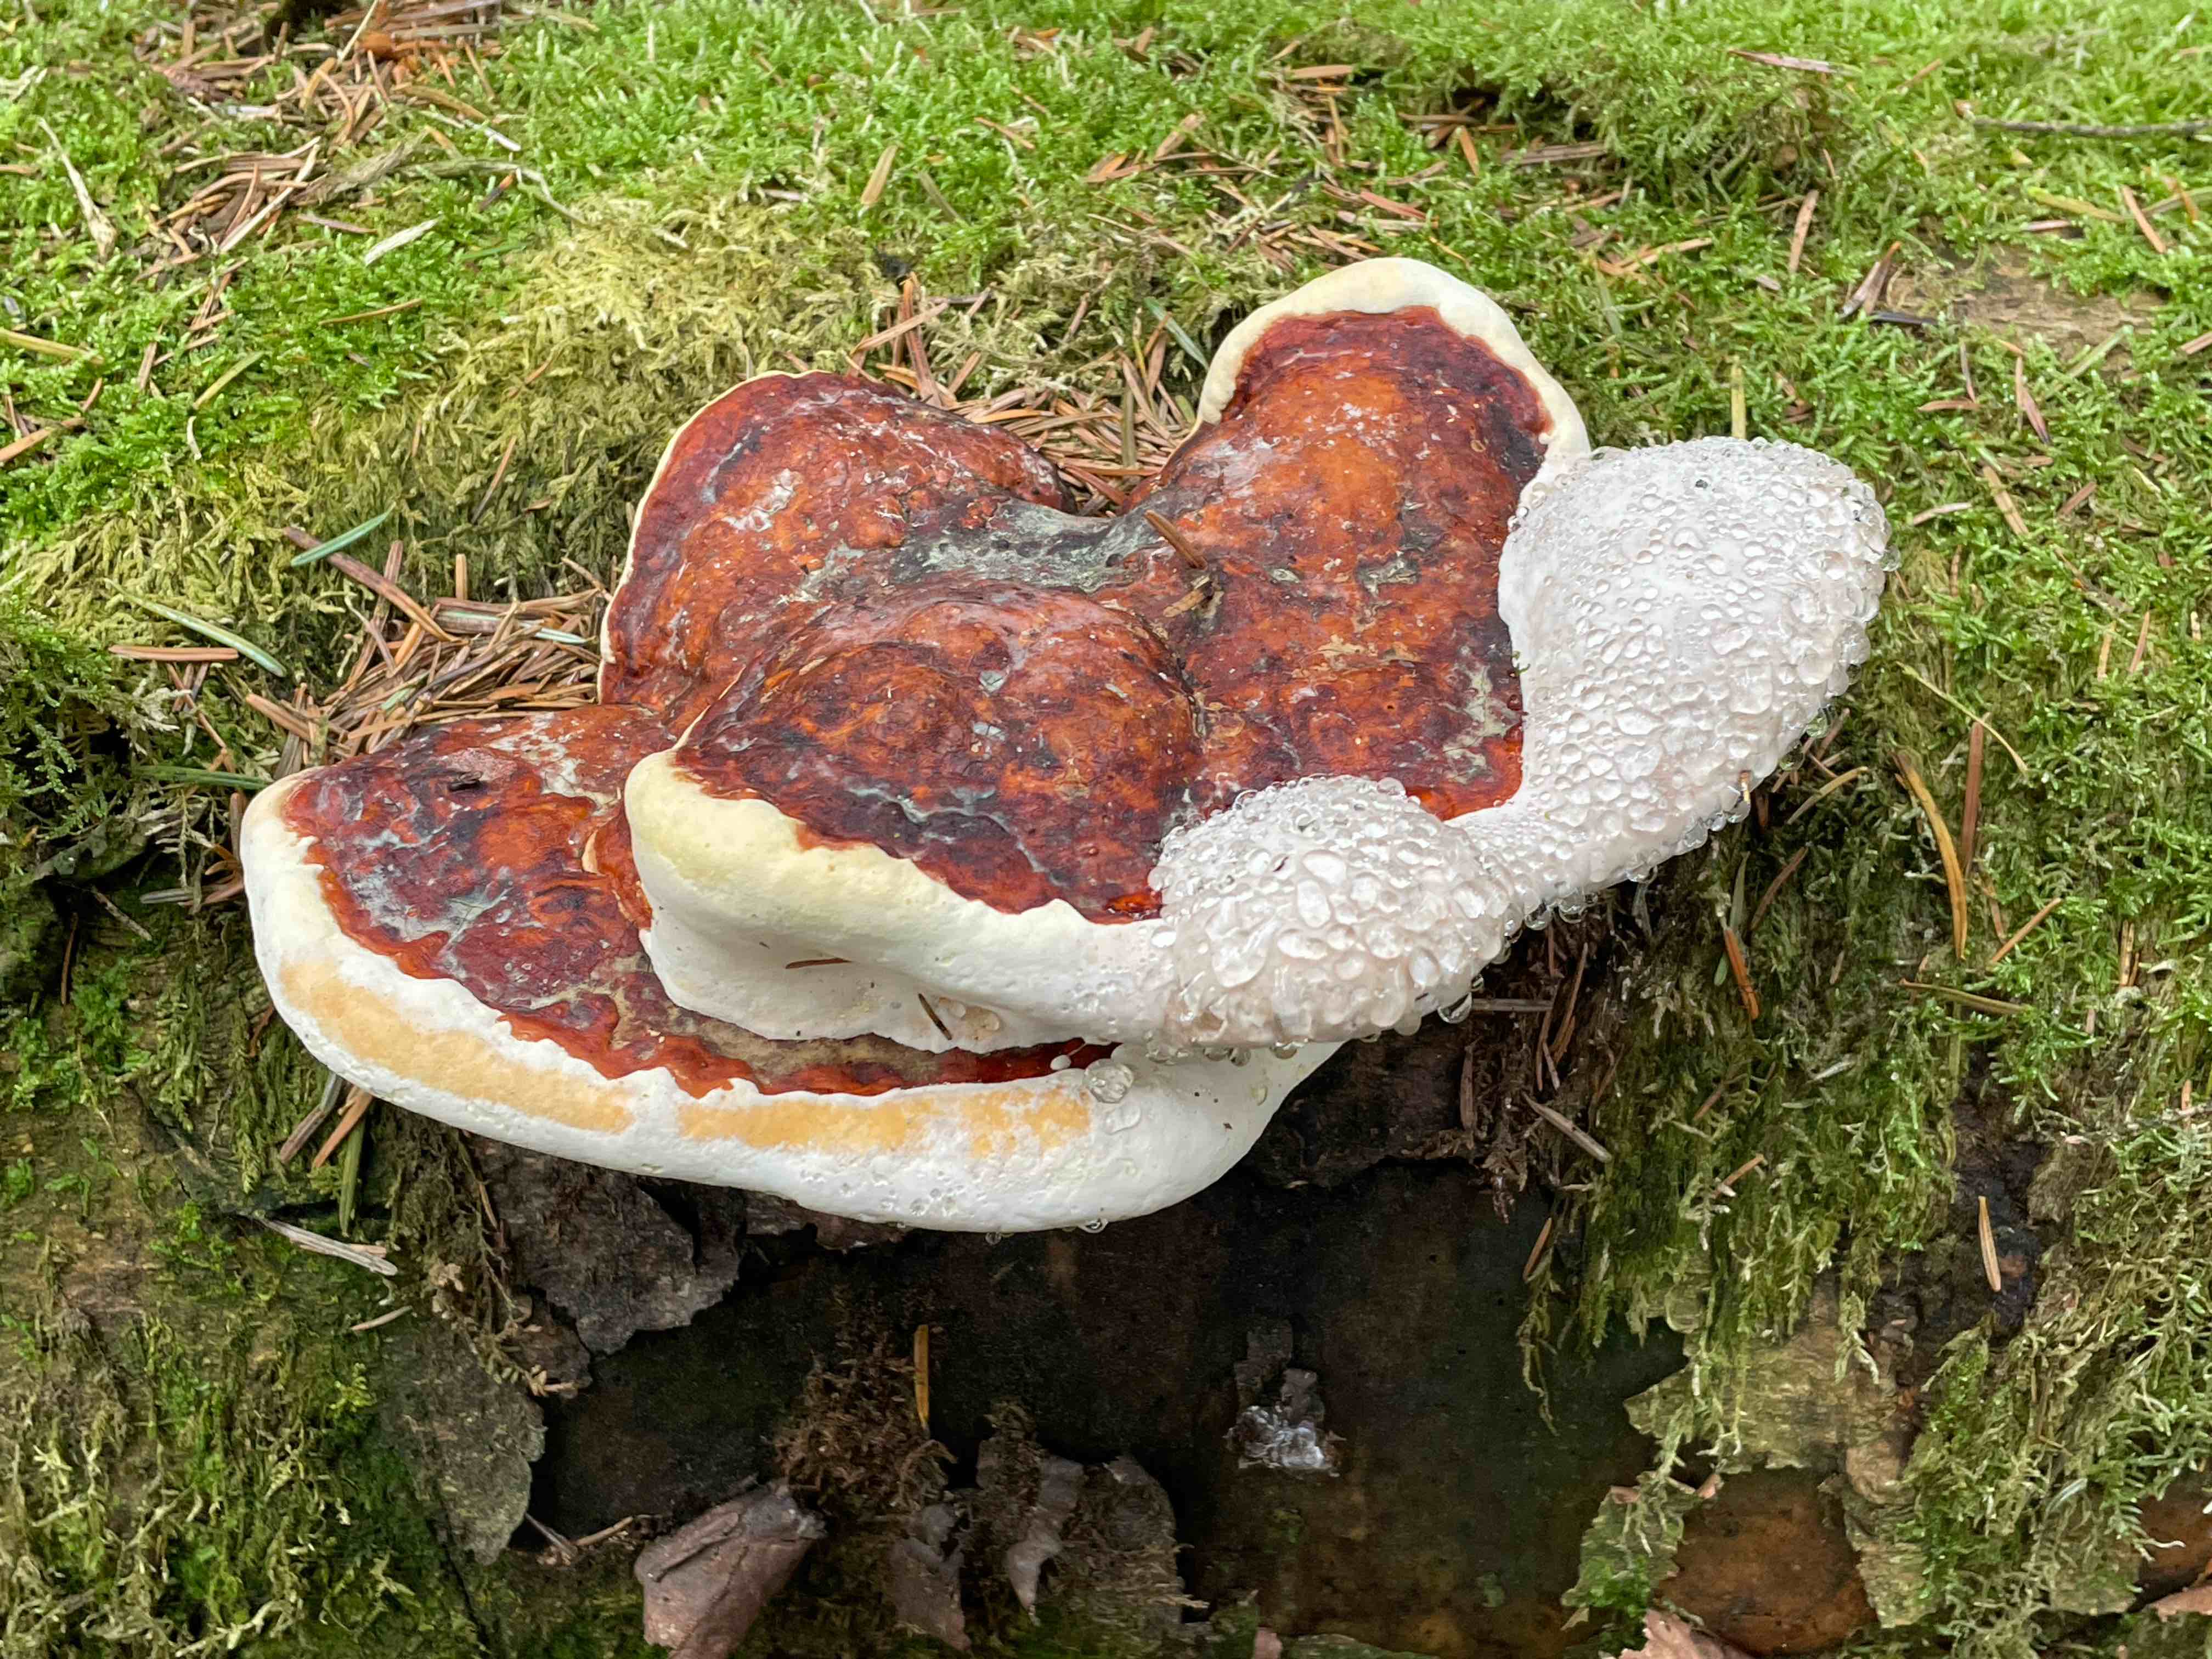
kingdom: Fungi
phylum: Basidiomycota
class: Agaricomycetes
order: Polyporales
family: Fomitopsidaceae
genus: Fomitopsis
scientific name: Fomitopsis pinicola
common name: randbæltet hovporesvamp
